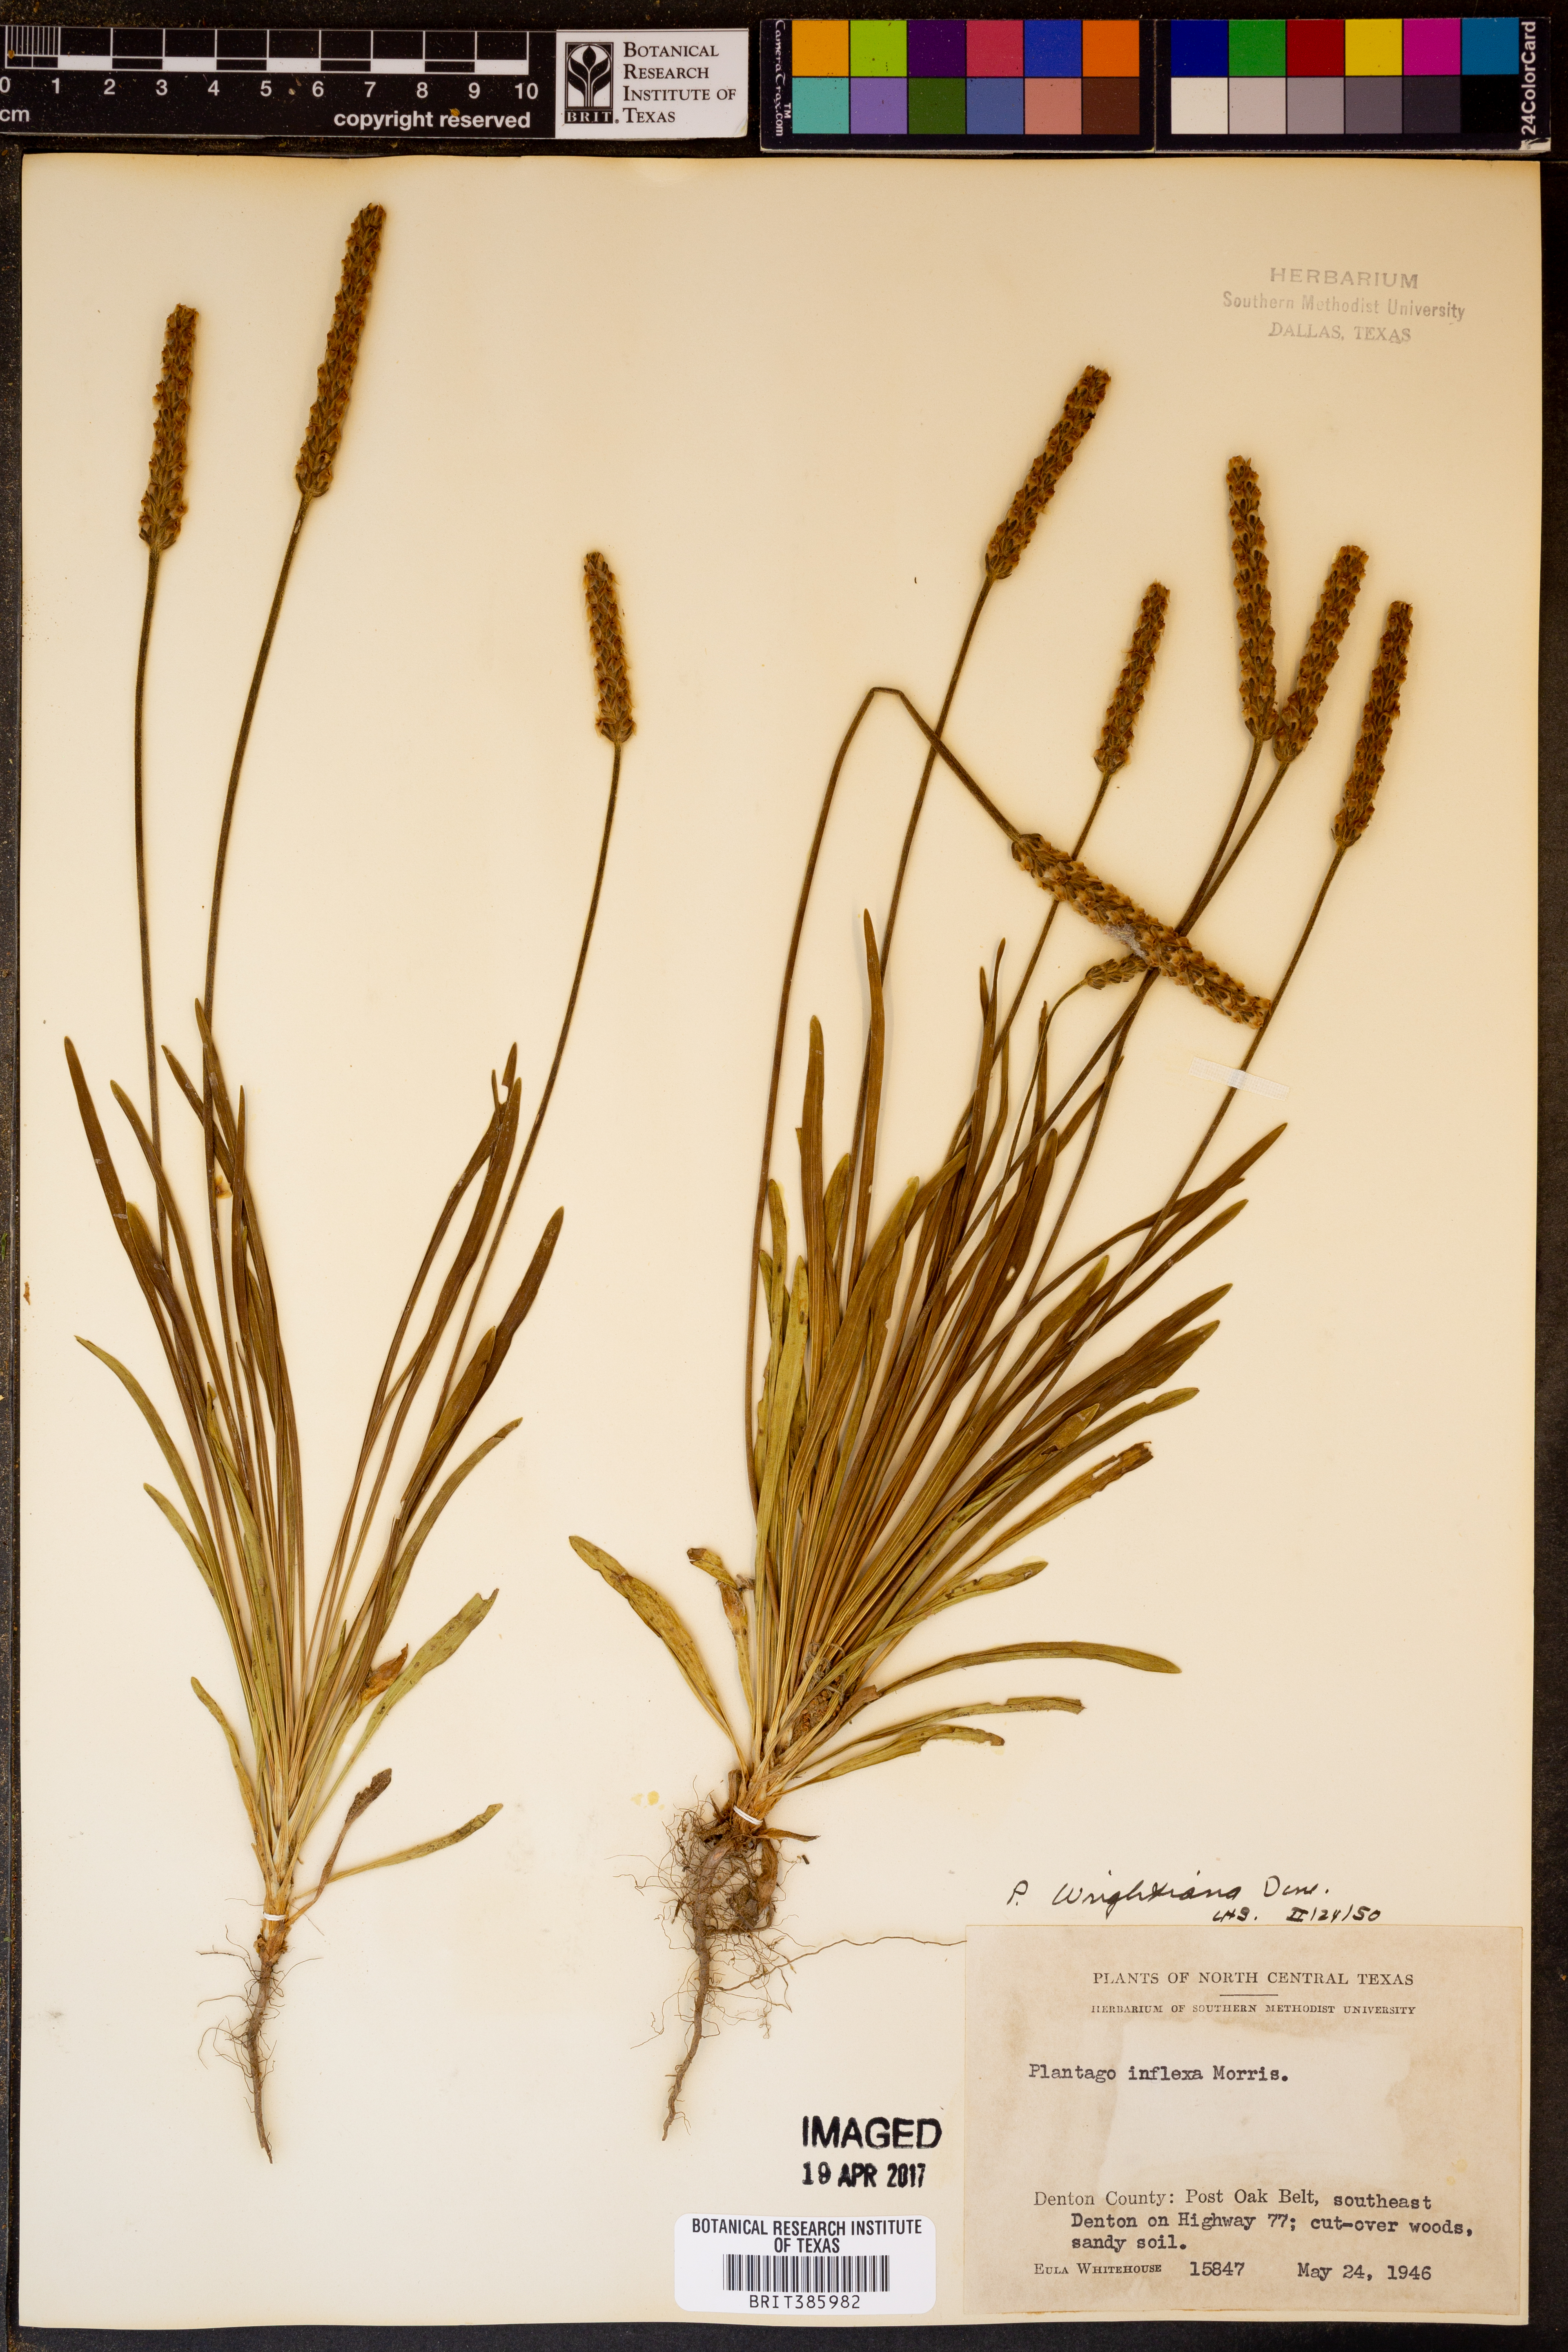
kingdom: Plantae
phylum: Tracheophyta
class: Magnoliopsida
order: Lamiales
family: Plantaginaceae
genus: Plantago
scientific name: Plantago wrightiana
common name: Wright's plantain
